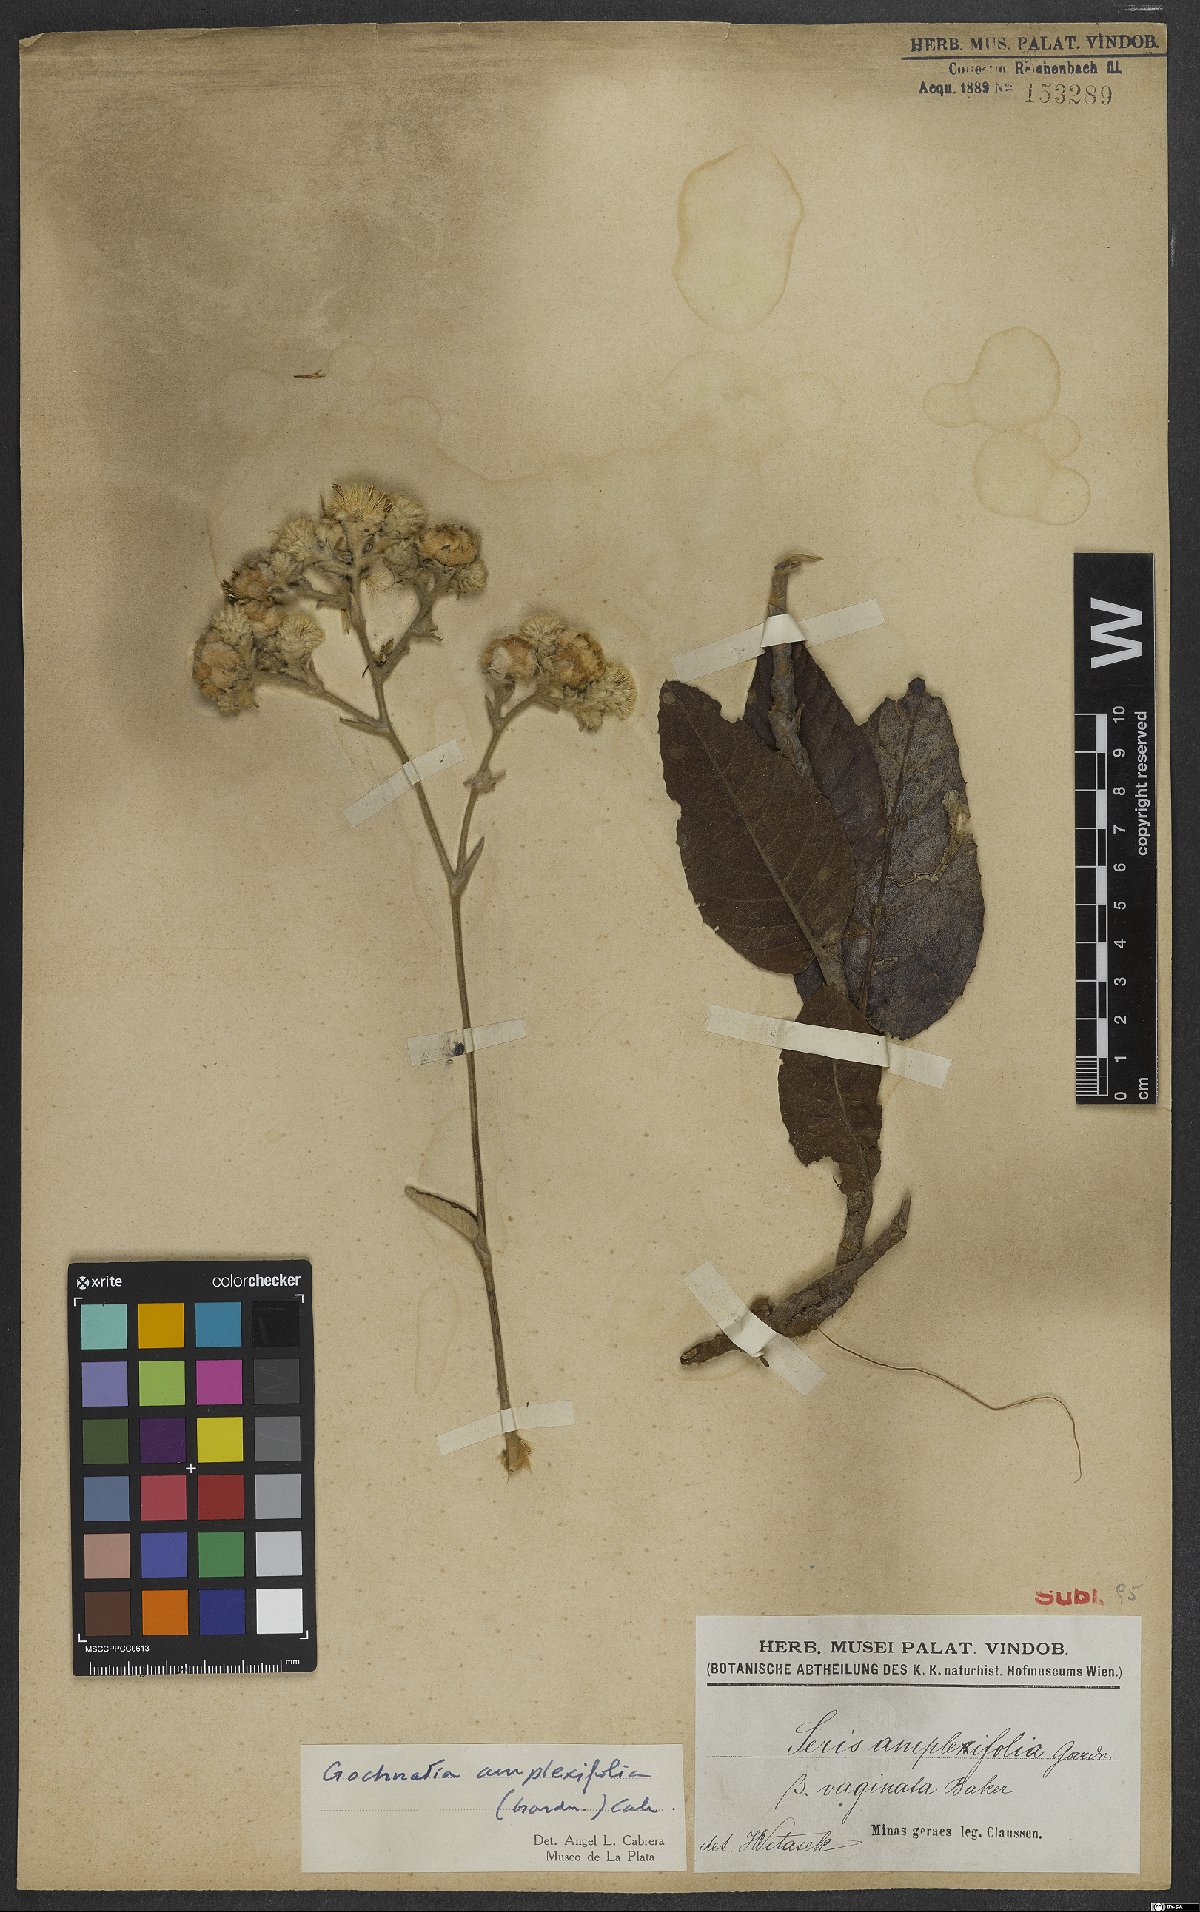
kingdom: Plantae
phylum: Tracheophyta
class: Magnoliopsida
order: Asterales
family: Asteraceae
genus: Richterago
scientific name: Richterago amplexifolia
